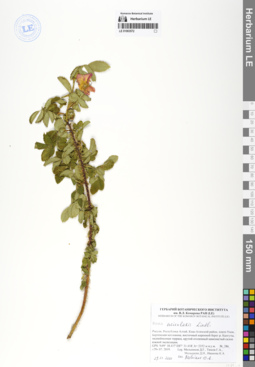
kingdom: Plantae
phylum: Tracheophyta
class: Magnoliopsida
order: Rosales
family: Rosaceae
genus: Rosa
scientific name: Rosa acicularis
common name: Prickly rose
